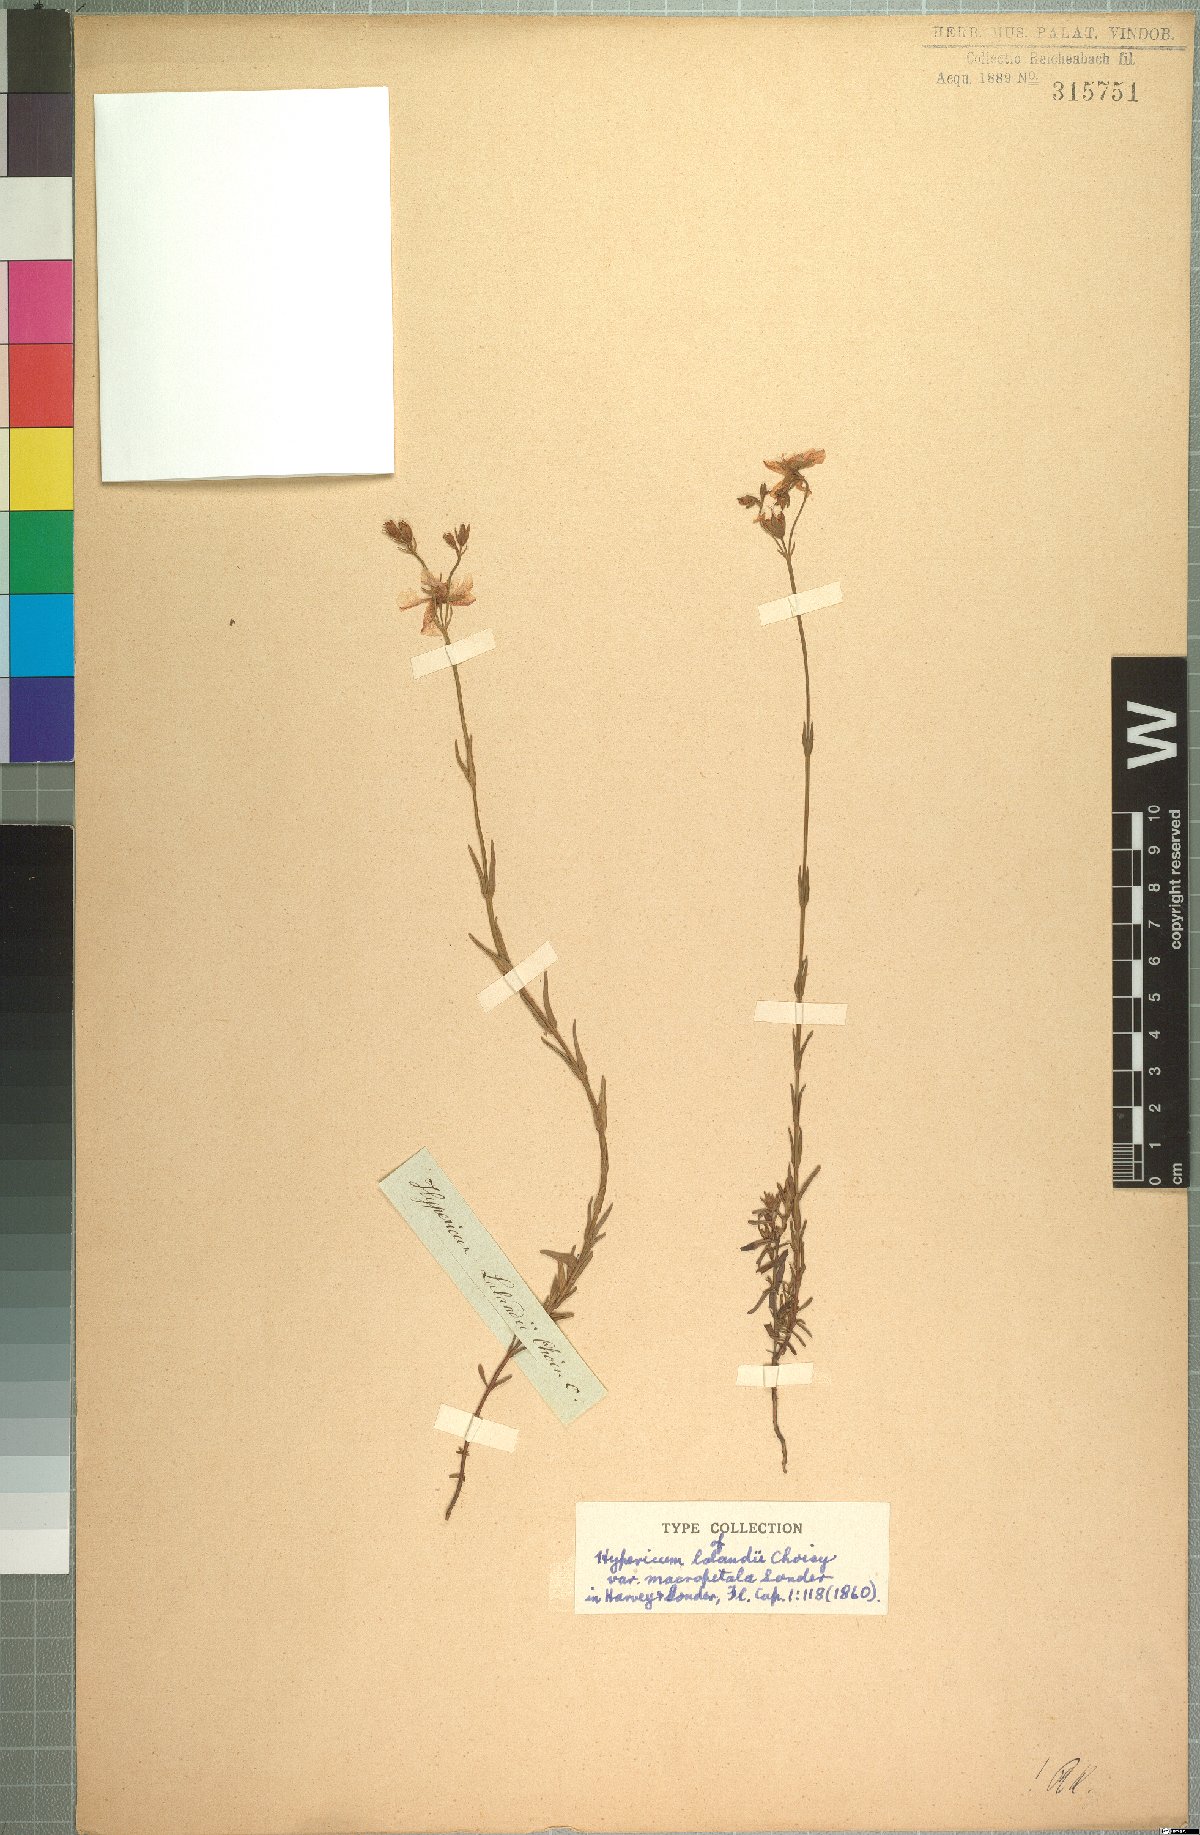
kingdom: Plantae
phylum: Tracheophyta
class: Magnoliopsida
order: Malpighiales
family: Hypericaceae
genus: Hypericum
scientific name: Hypericum lalandii
